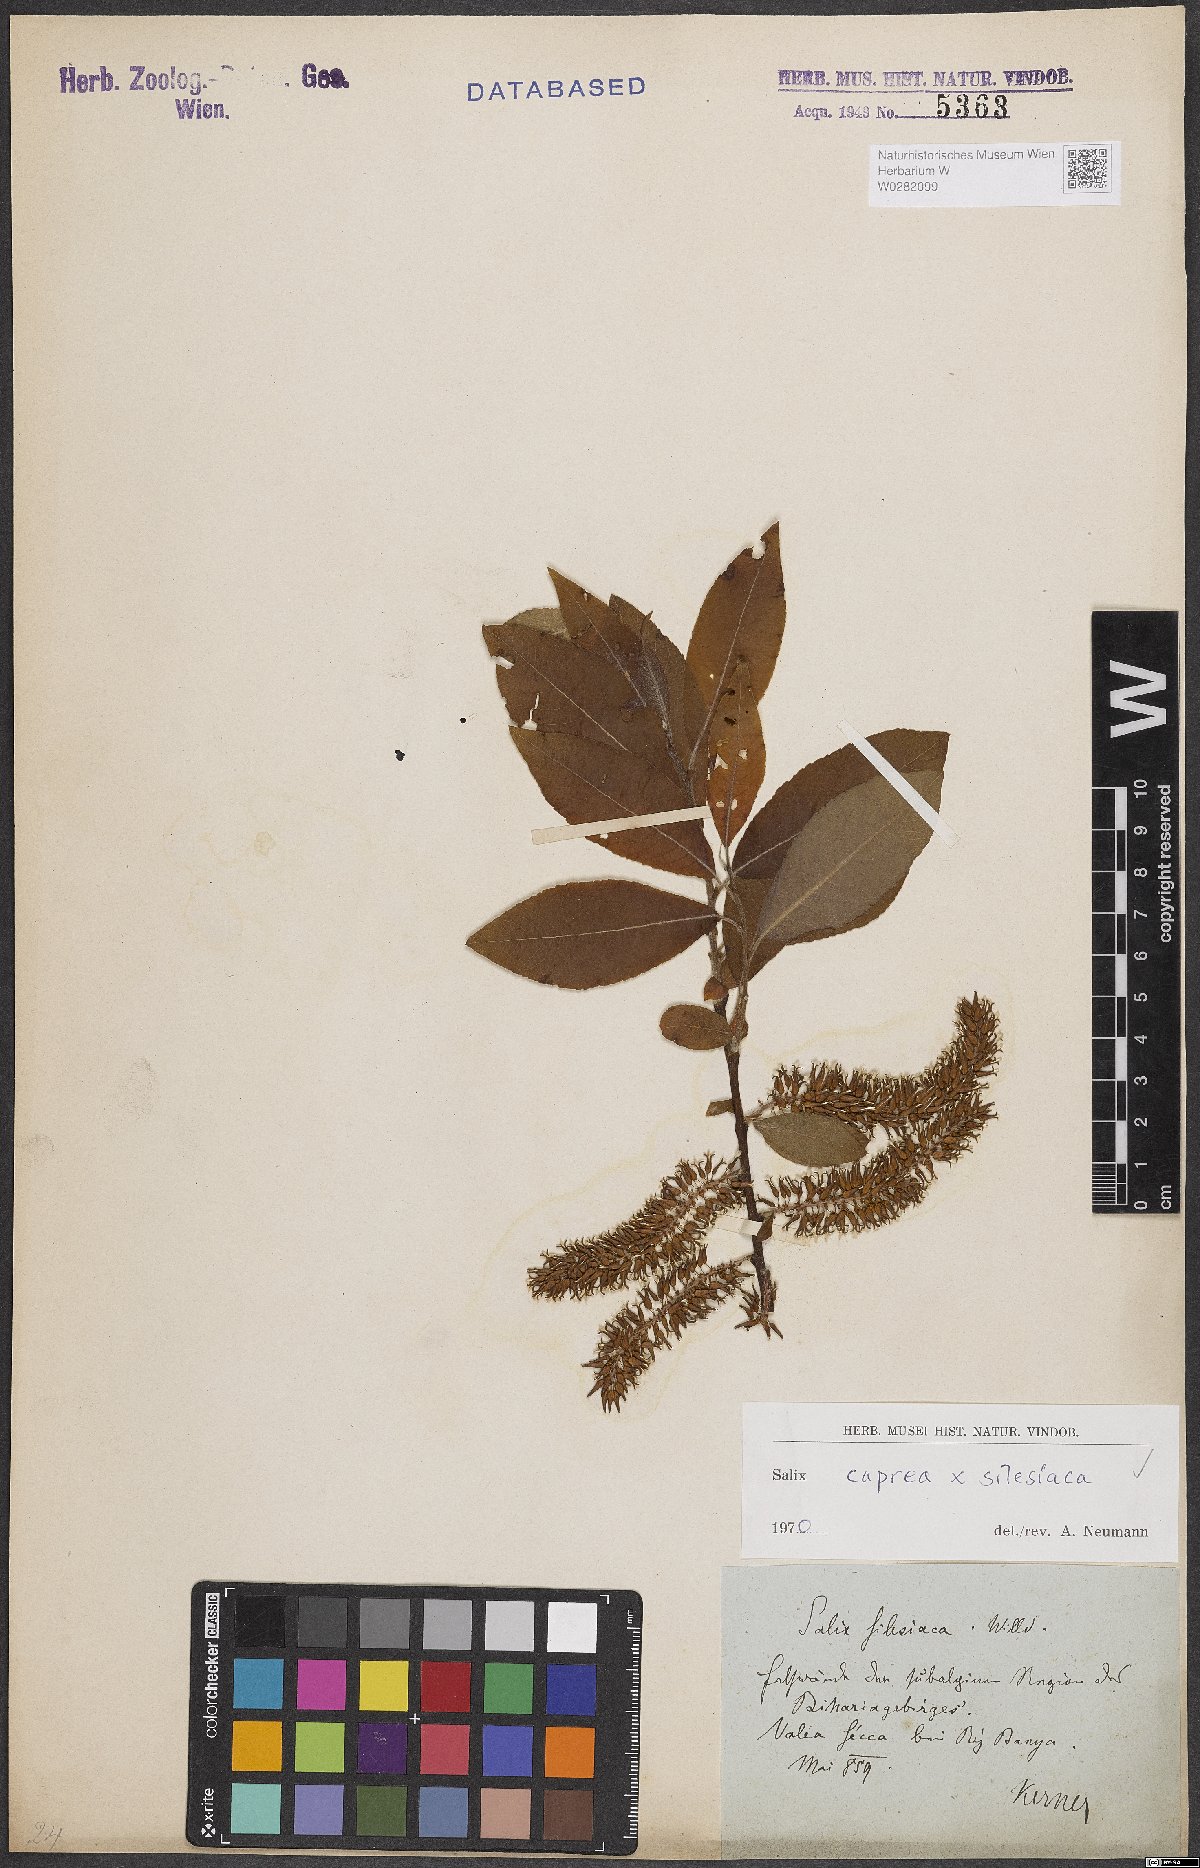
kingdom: Plantae
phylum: Tracheophyta
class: Magnoliopsida
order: Malpighiales
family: Salicaceae
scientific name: Salicaceae
